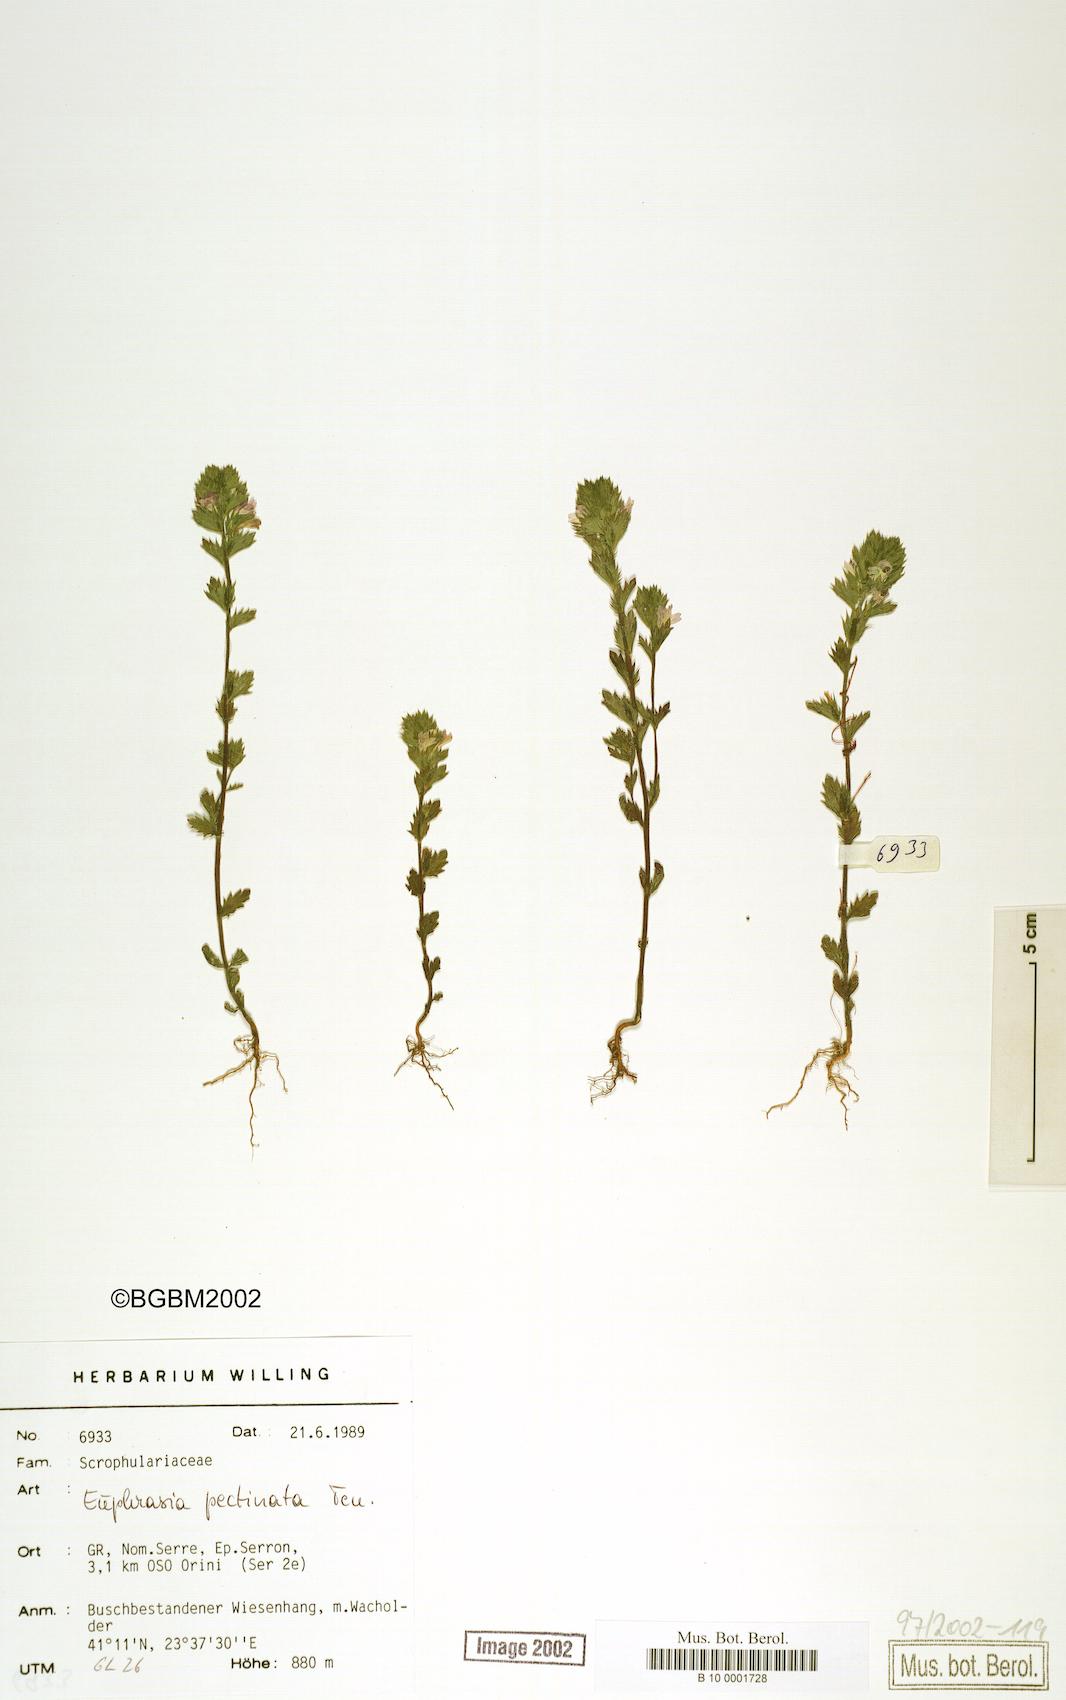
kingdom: Plantae
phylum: Tracheophyta
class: Magnoliopsida
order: Lamiales
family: Orobanchaceae
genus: Euphrasia
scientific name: Euphrasia pectinata
